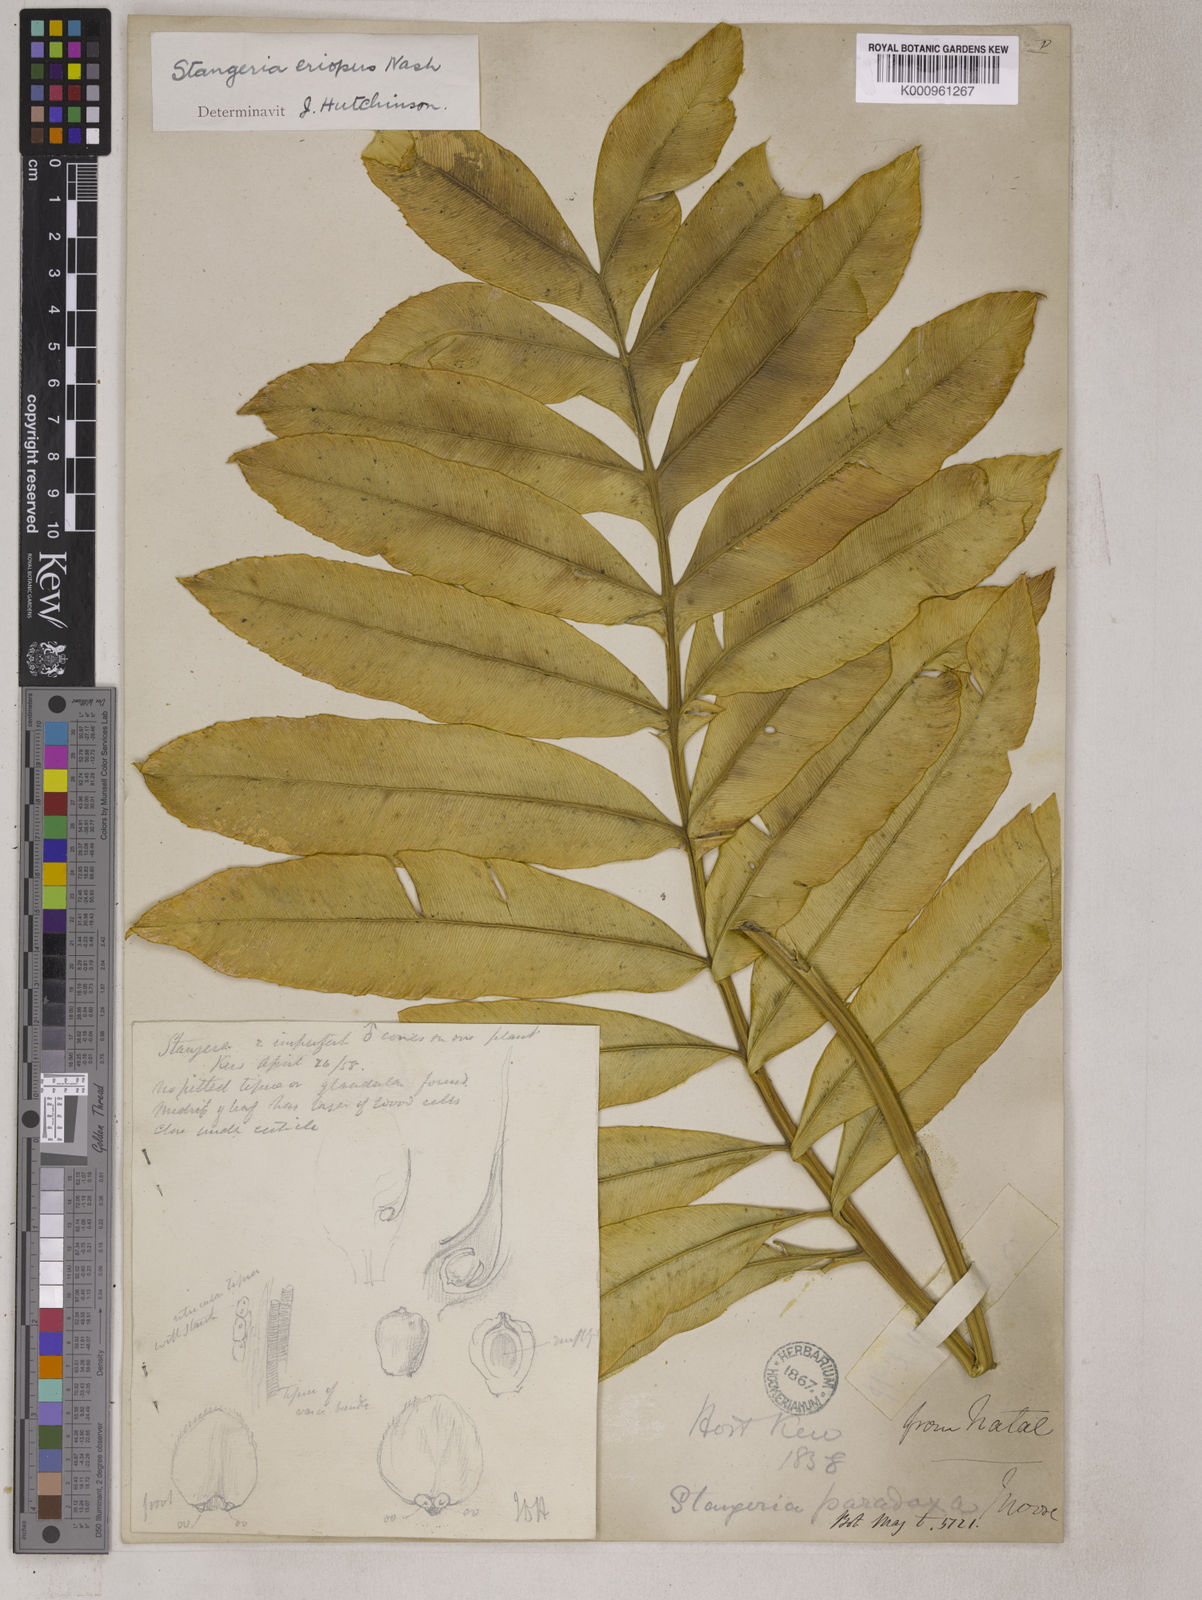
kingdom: Plantae
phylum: Tracheophyta
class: Cycadopsida
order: Cycadales
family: Zamiaceae
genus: Stangeria
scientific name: Stangeria eriopus
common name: Natal grass cycad
